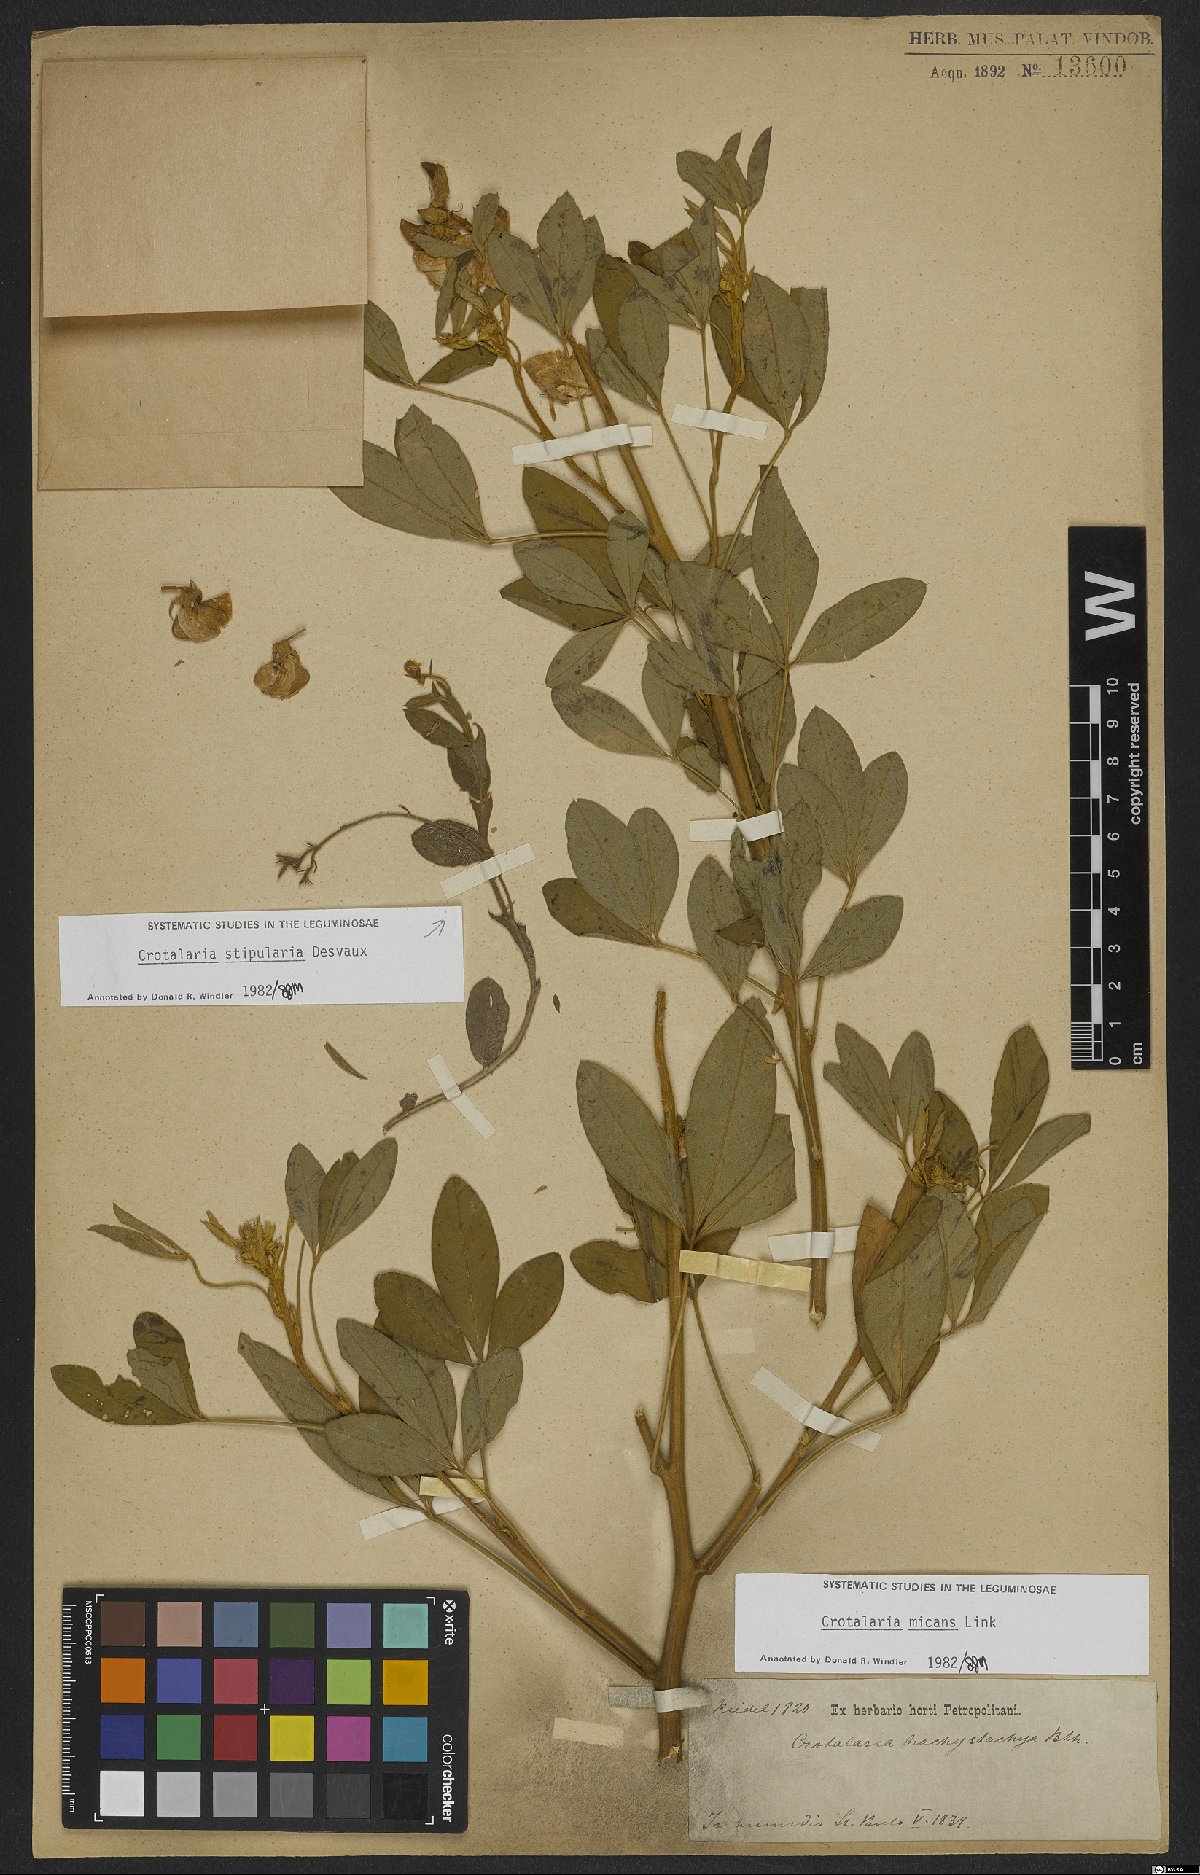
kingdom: Plantae
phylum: Tracheophyta
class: Magnoliopsida
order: Fabales
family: Fabaceae
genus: Crotalaria
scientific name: Crotalaria micans
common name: Caracas rattlebox
